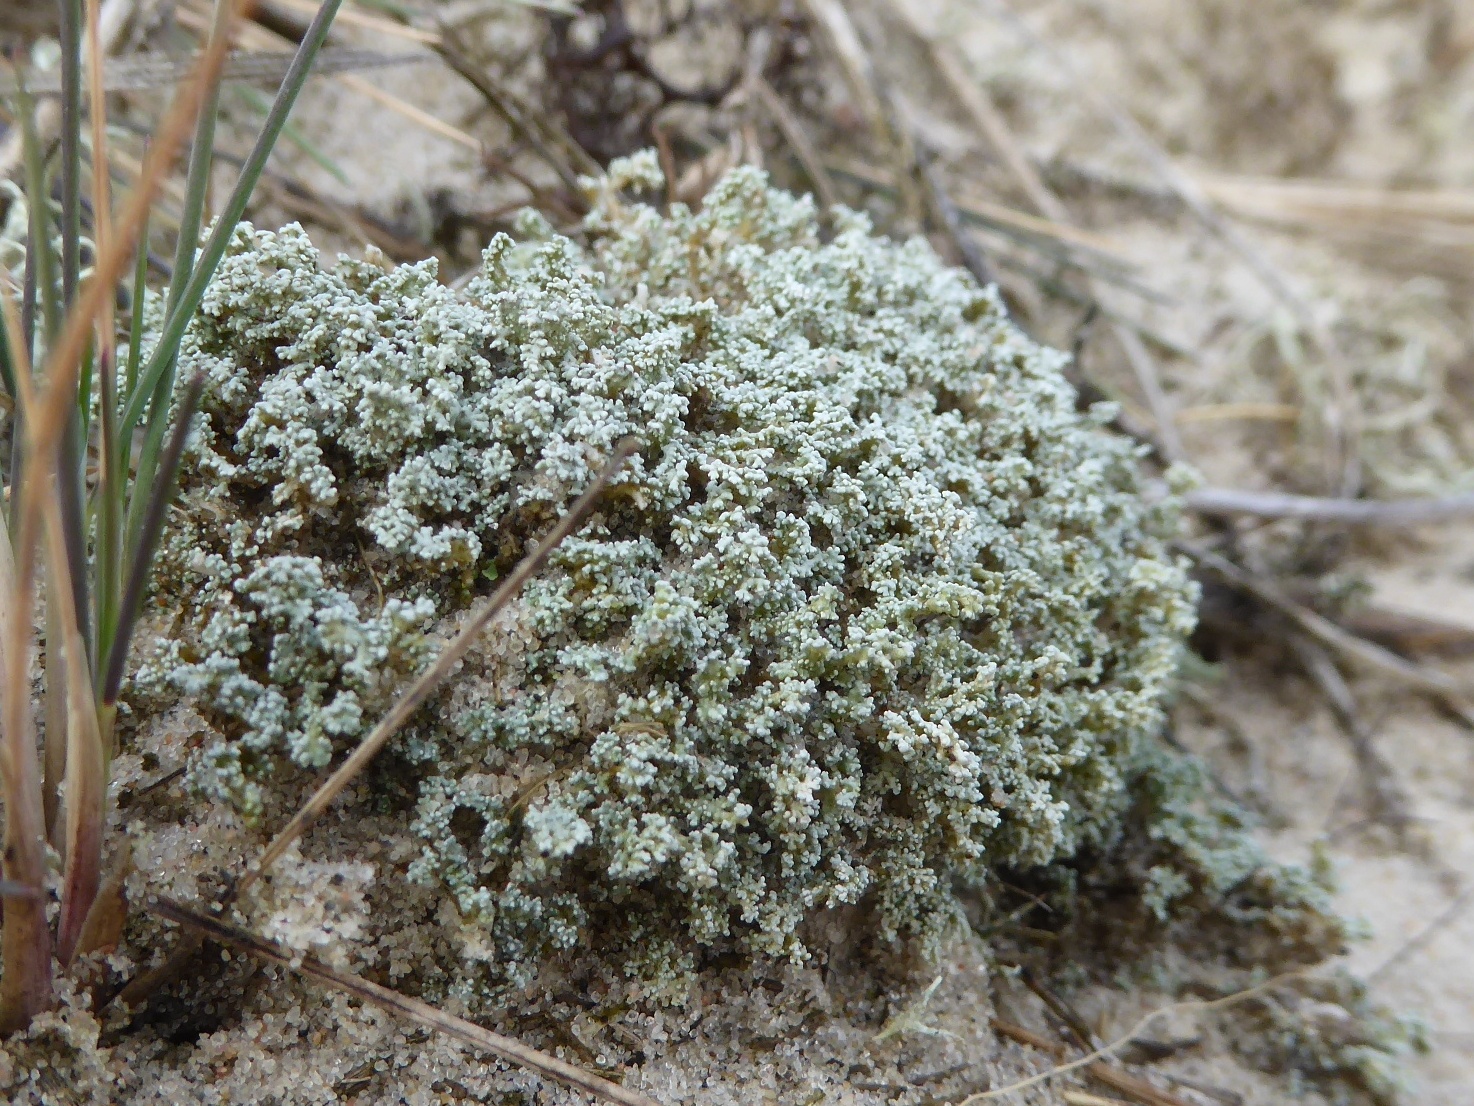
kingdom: Fungi
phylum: Ascomycota
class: Lecanoromycetes
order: Lecanorales
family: Stereocaulaceae
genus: Stereocaulon
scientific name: Stereocaulon condensatum
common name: lav korallav
